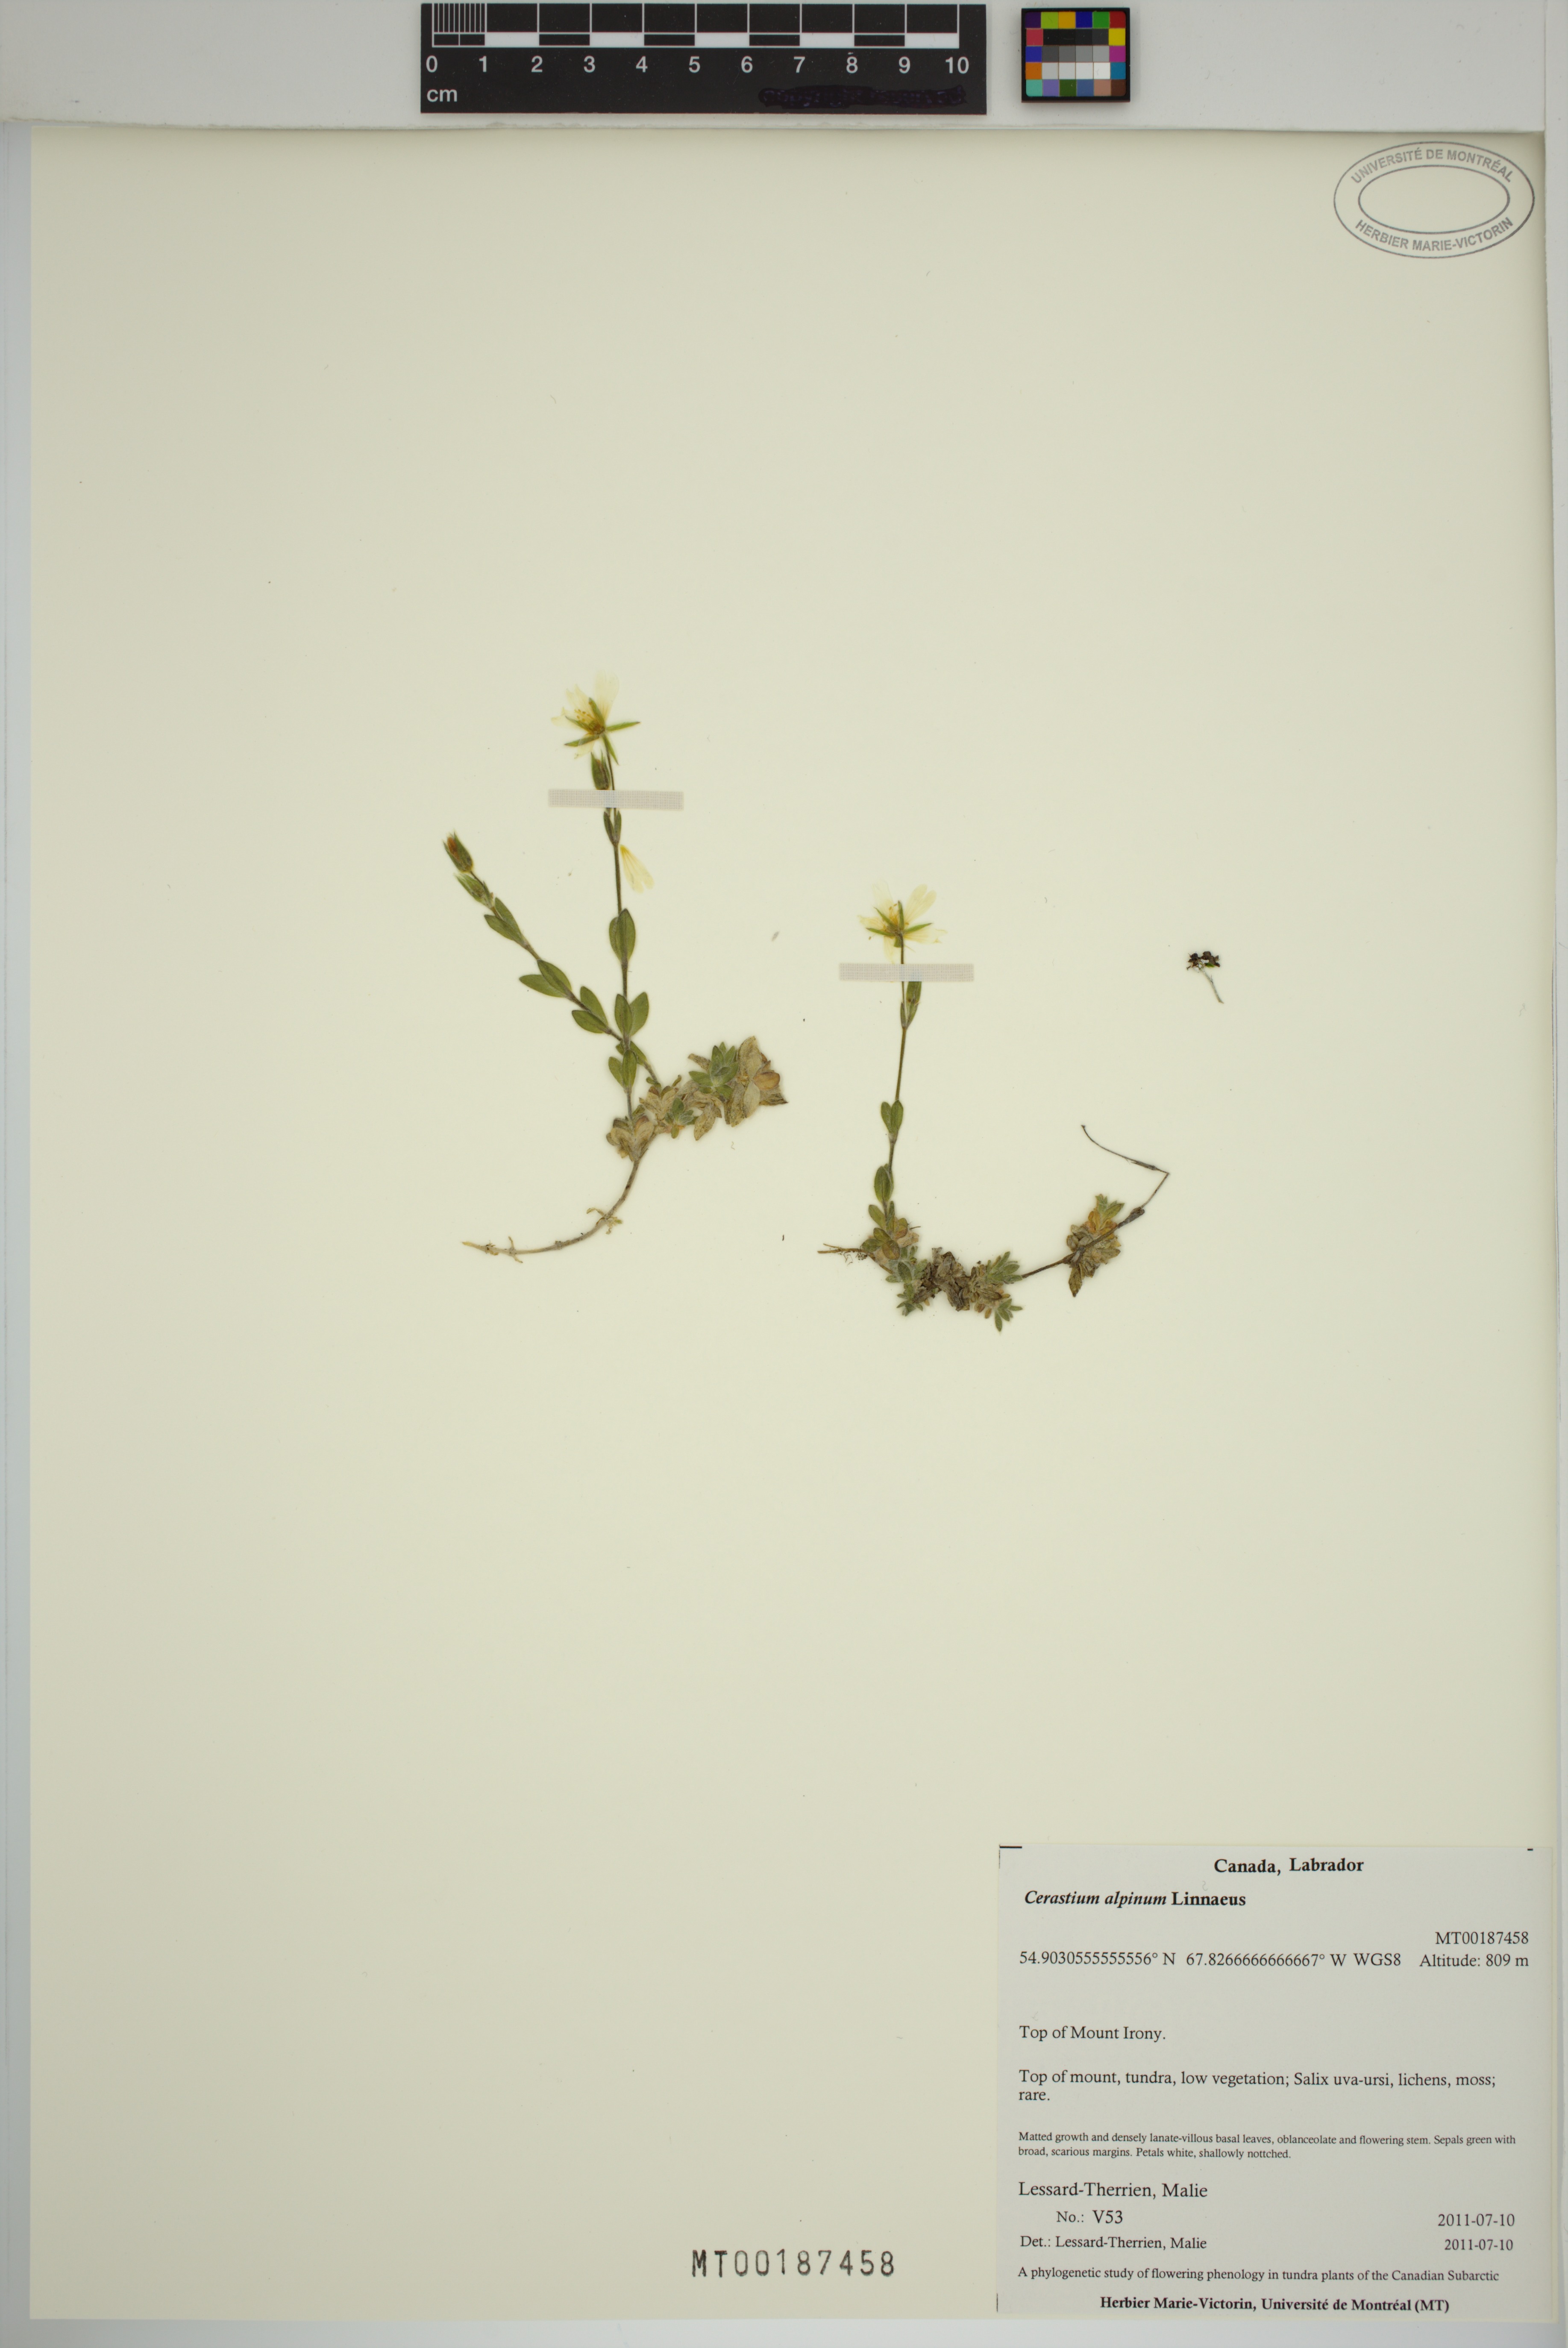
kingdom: Plantae
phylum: Tracheophyta
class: Magnoliopsida
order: Caryophyllales
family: Caryophyllaceae
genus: Cerastium
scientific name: Cerastium alpinum
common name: Alpine mouse-ear
